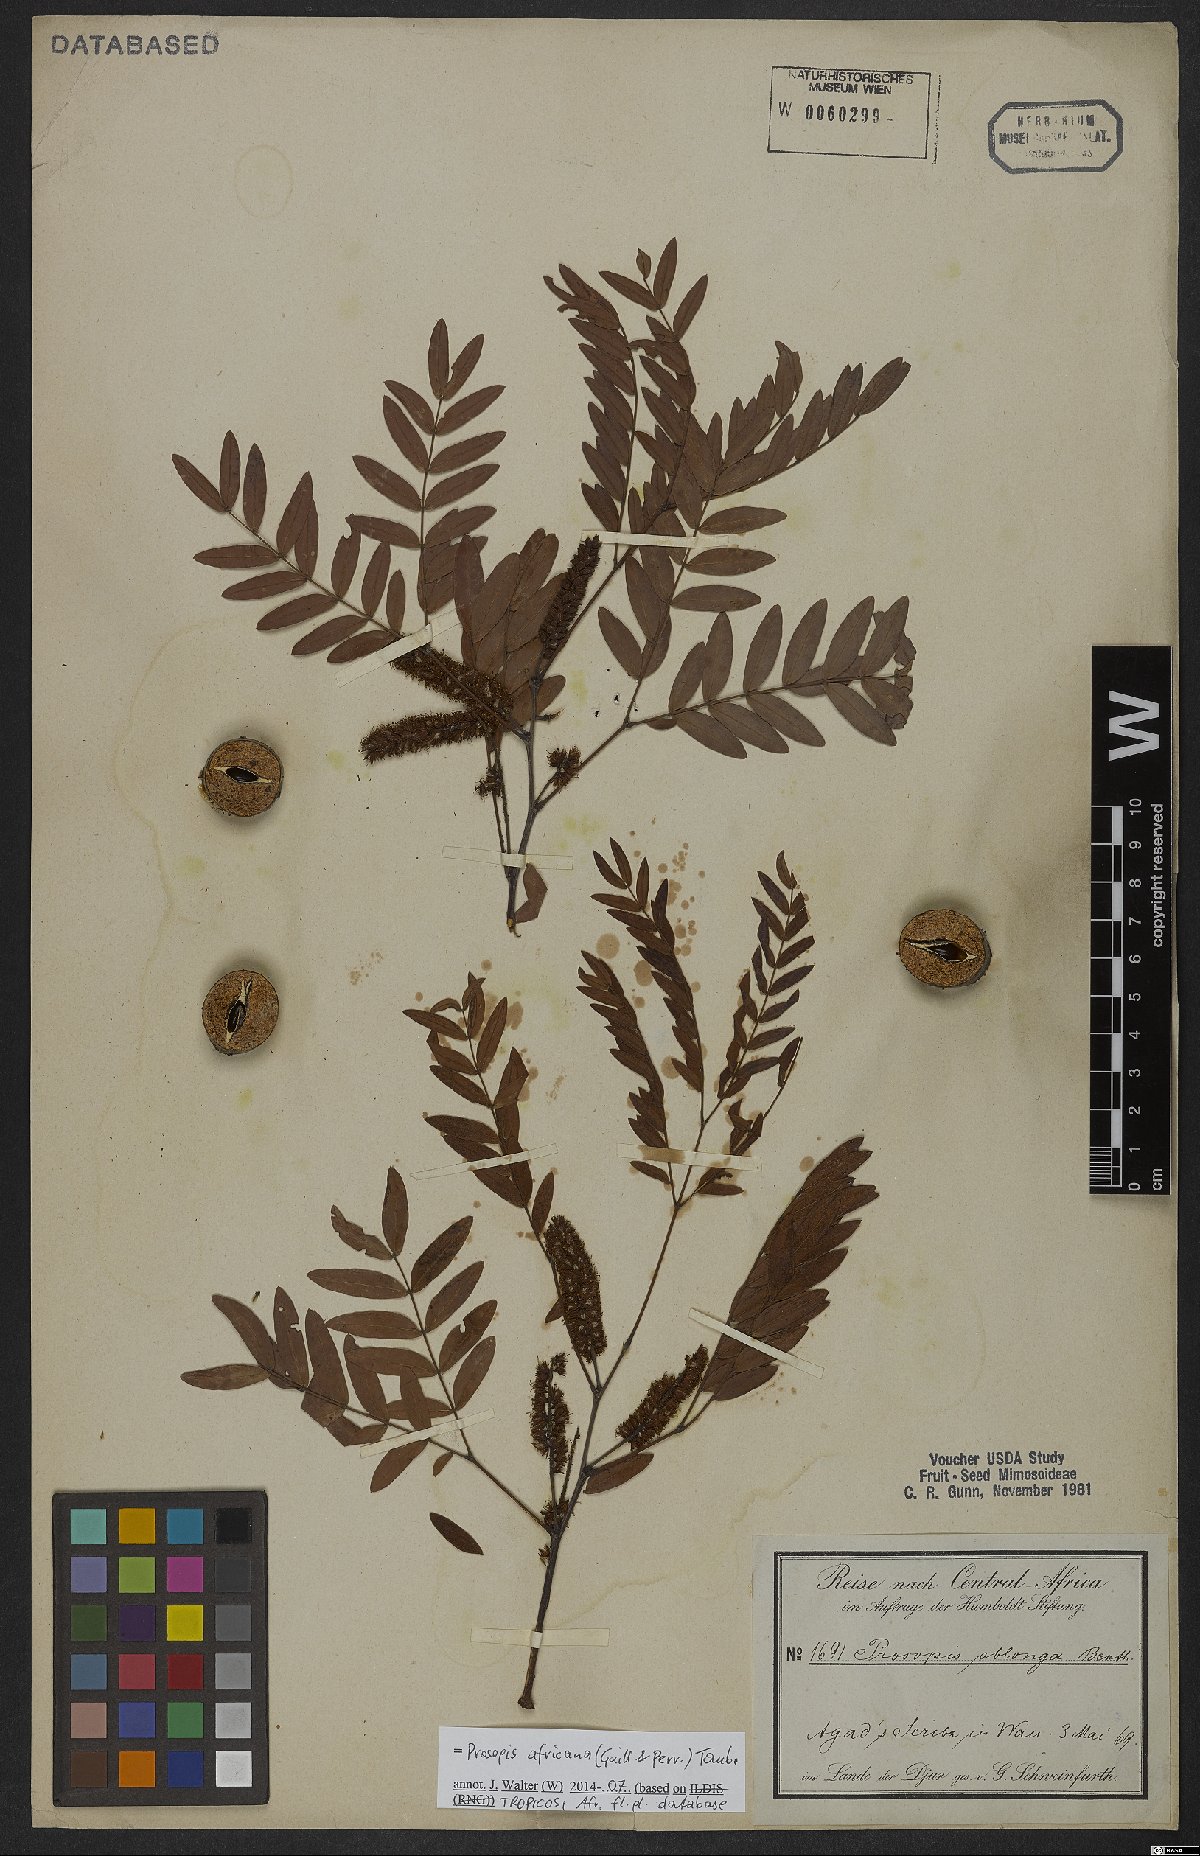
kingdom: Plantae
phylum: Tracheophyta
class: Magnoliopsida
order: Fabales
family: Fabaceae
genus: Prosopis
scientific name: Prosopis africana
